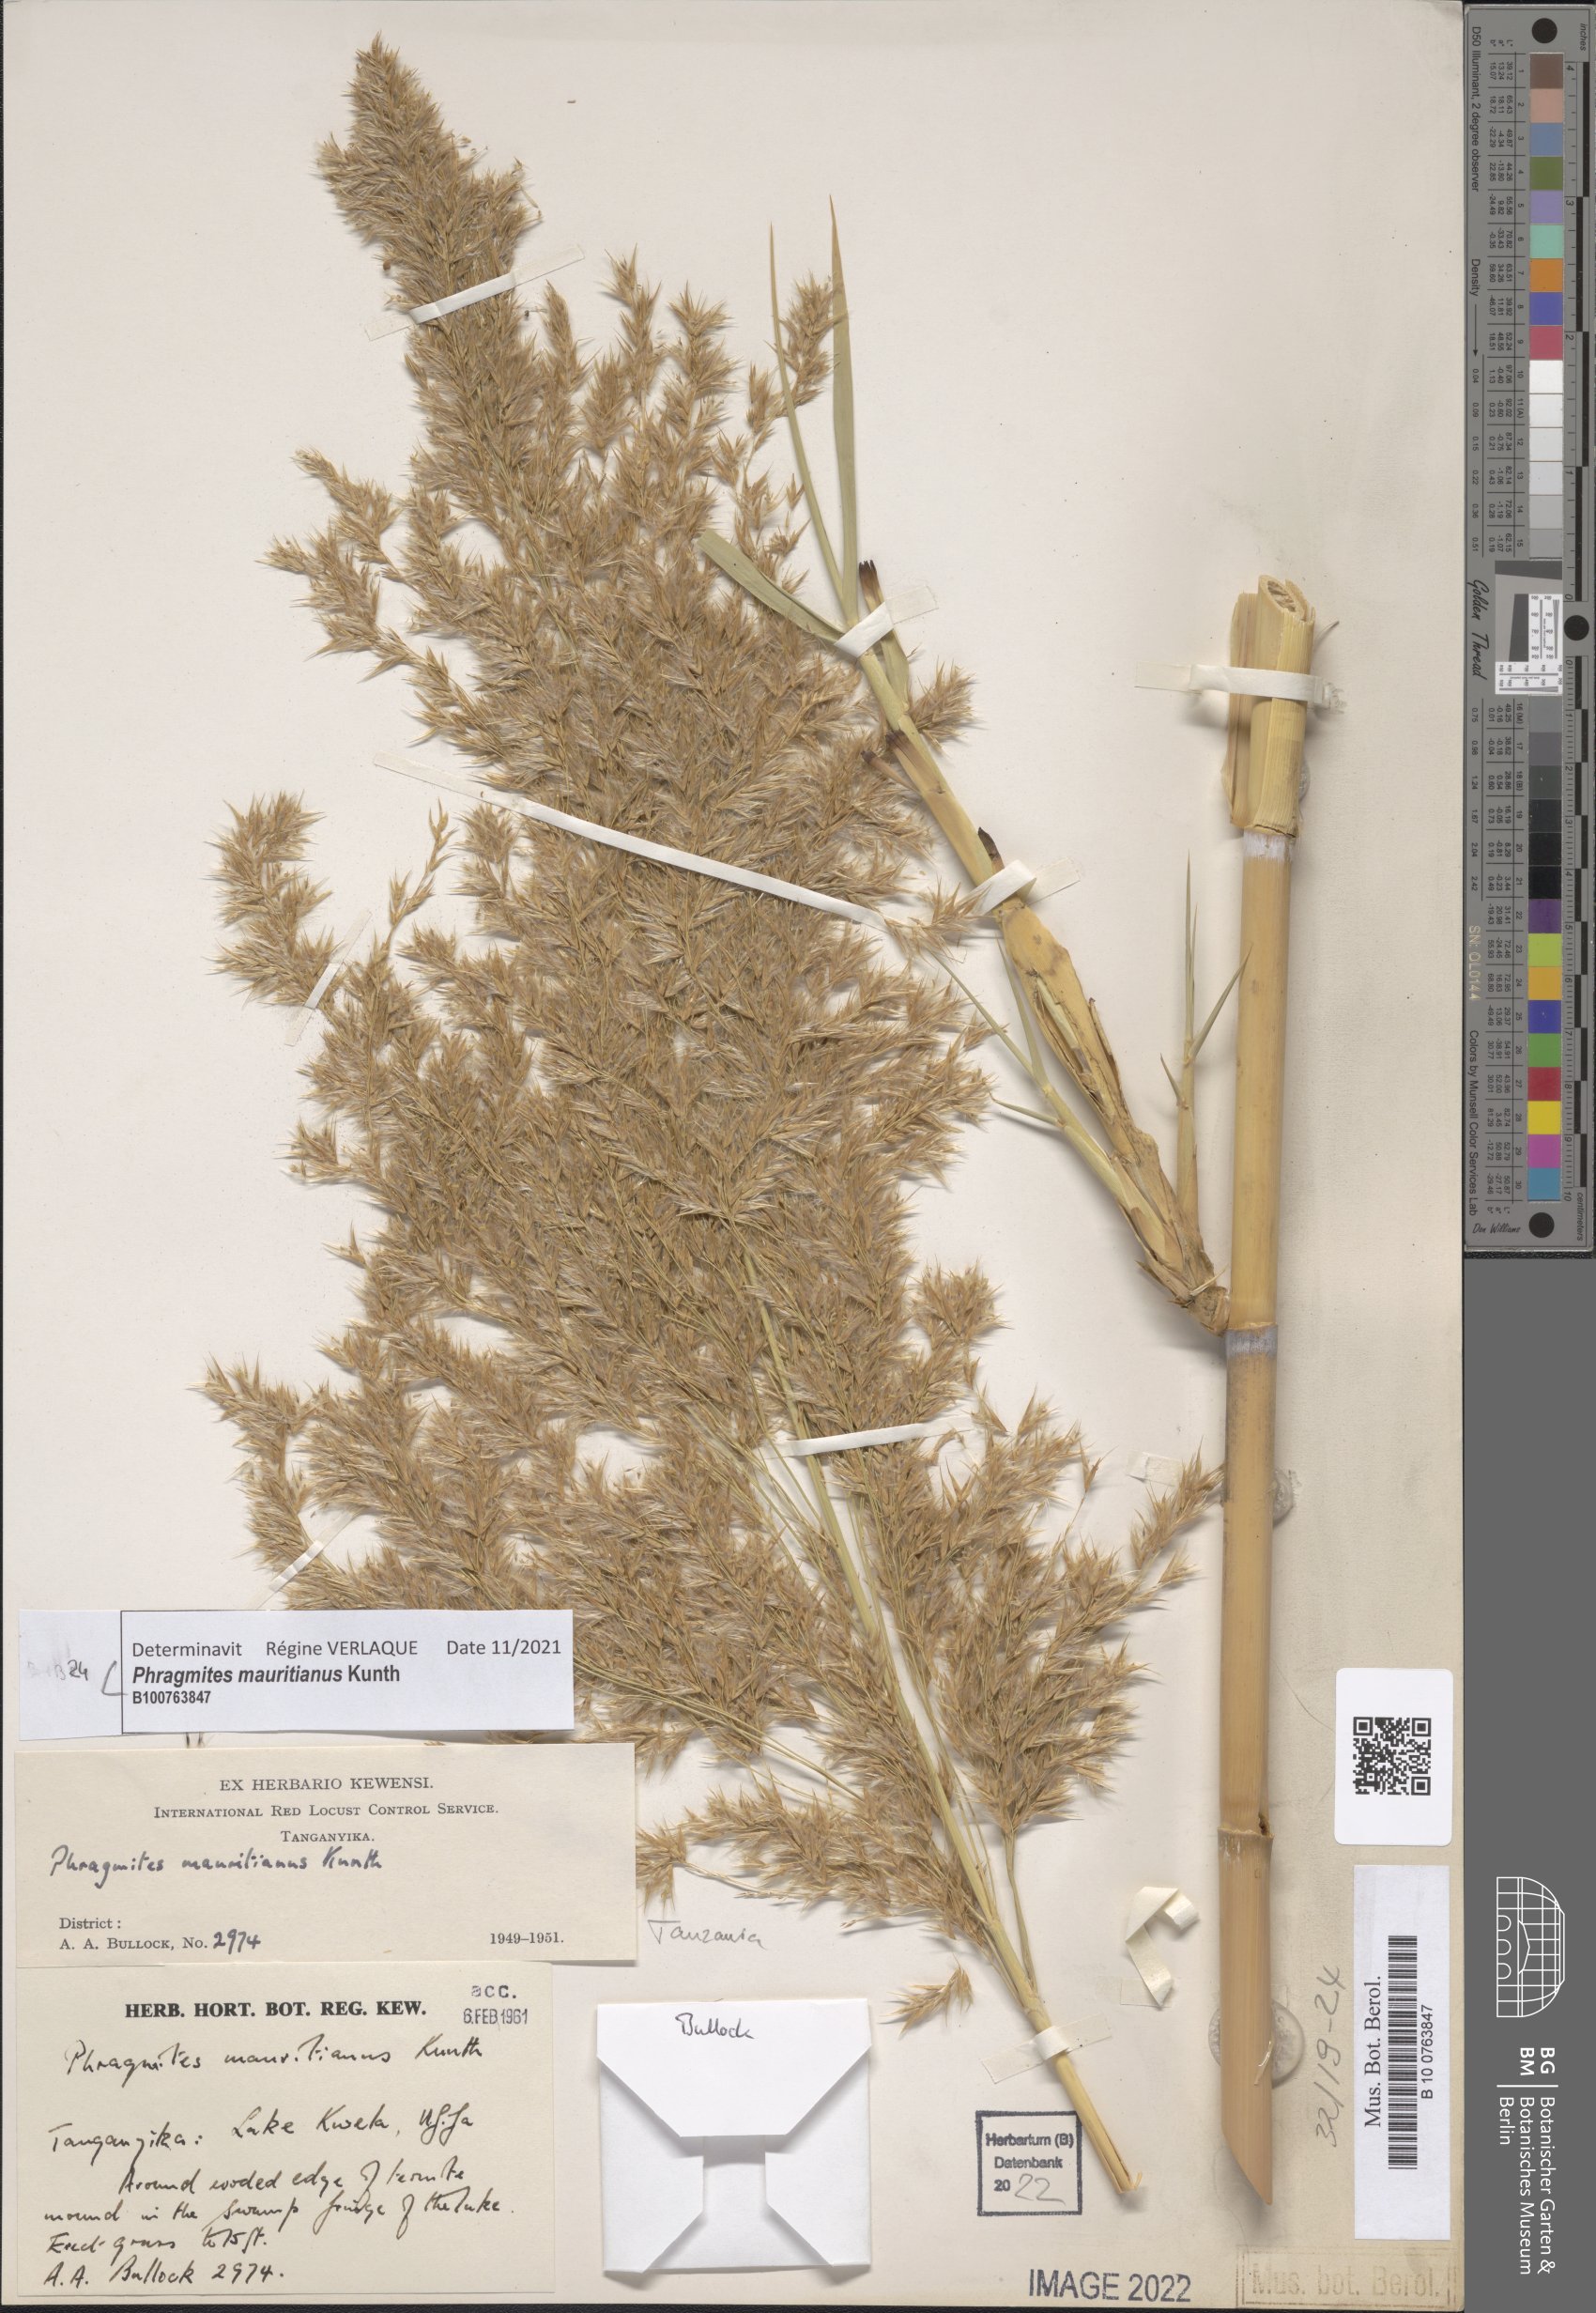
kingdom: Plantae
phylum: Tracheophyta
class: Liliopsida
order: Poales
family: Poaceae
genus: Phragmites
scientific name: Phragmites mauritianus
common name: Reed grass
